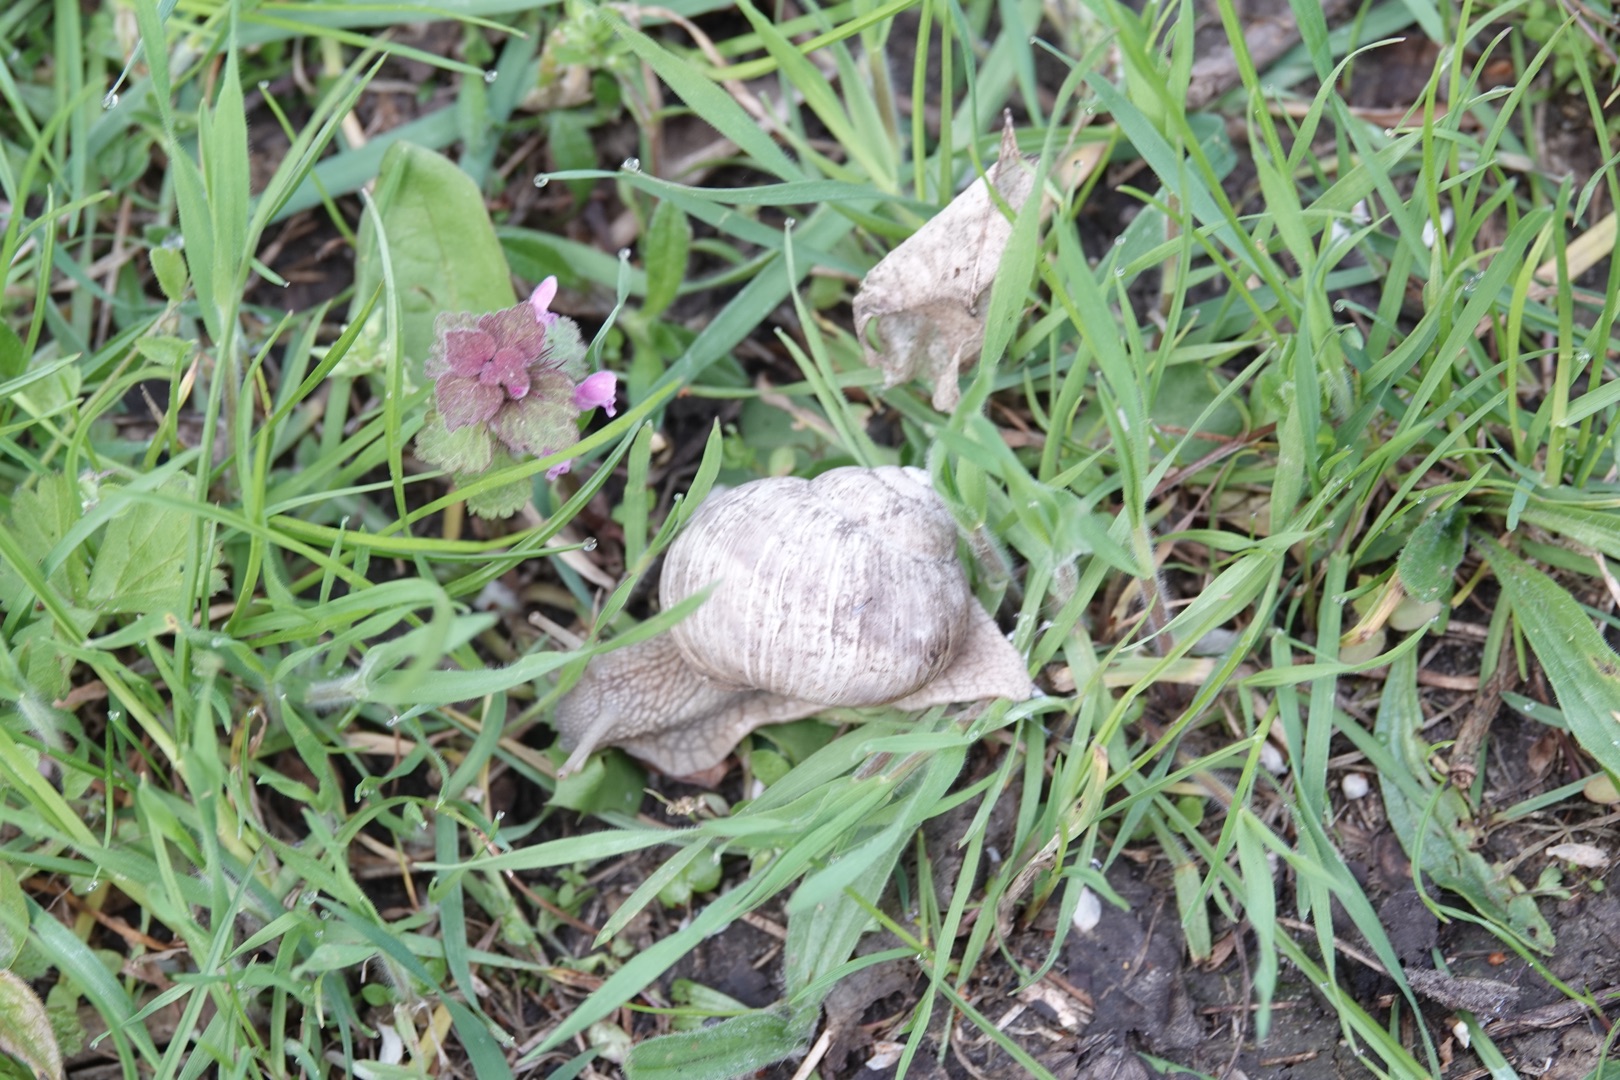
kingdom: Animalia
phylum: Mollusca
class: Gastropoda
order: Stylommatophora
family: Helicidae
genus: Helix
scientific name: Helix pomatia
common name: Vinbjergsnegl
